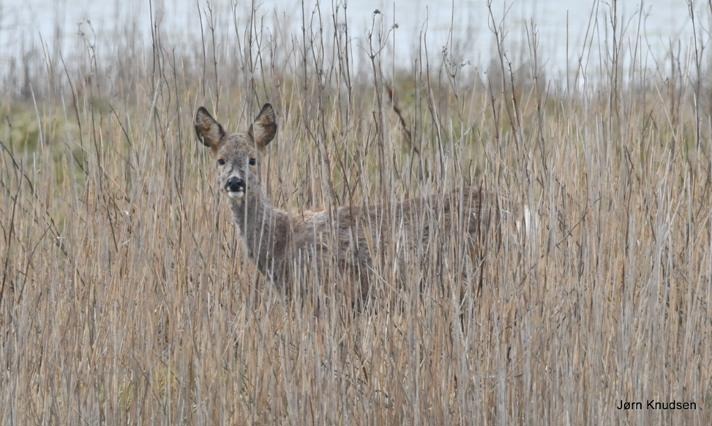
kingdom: Animalia
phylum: Chordata
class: Mammalia
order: Artiodactyla
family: Cervidae
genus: Capreolus
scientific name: Capreolus capreolus
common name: Rådyr
